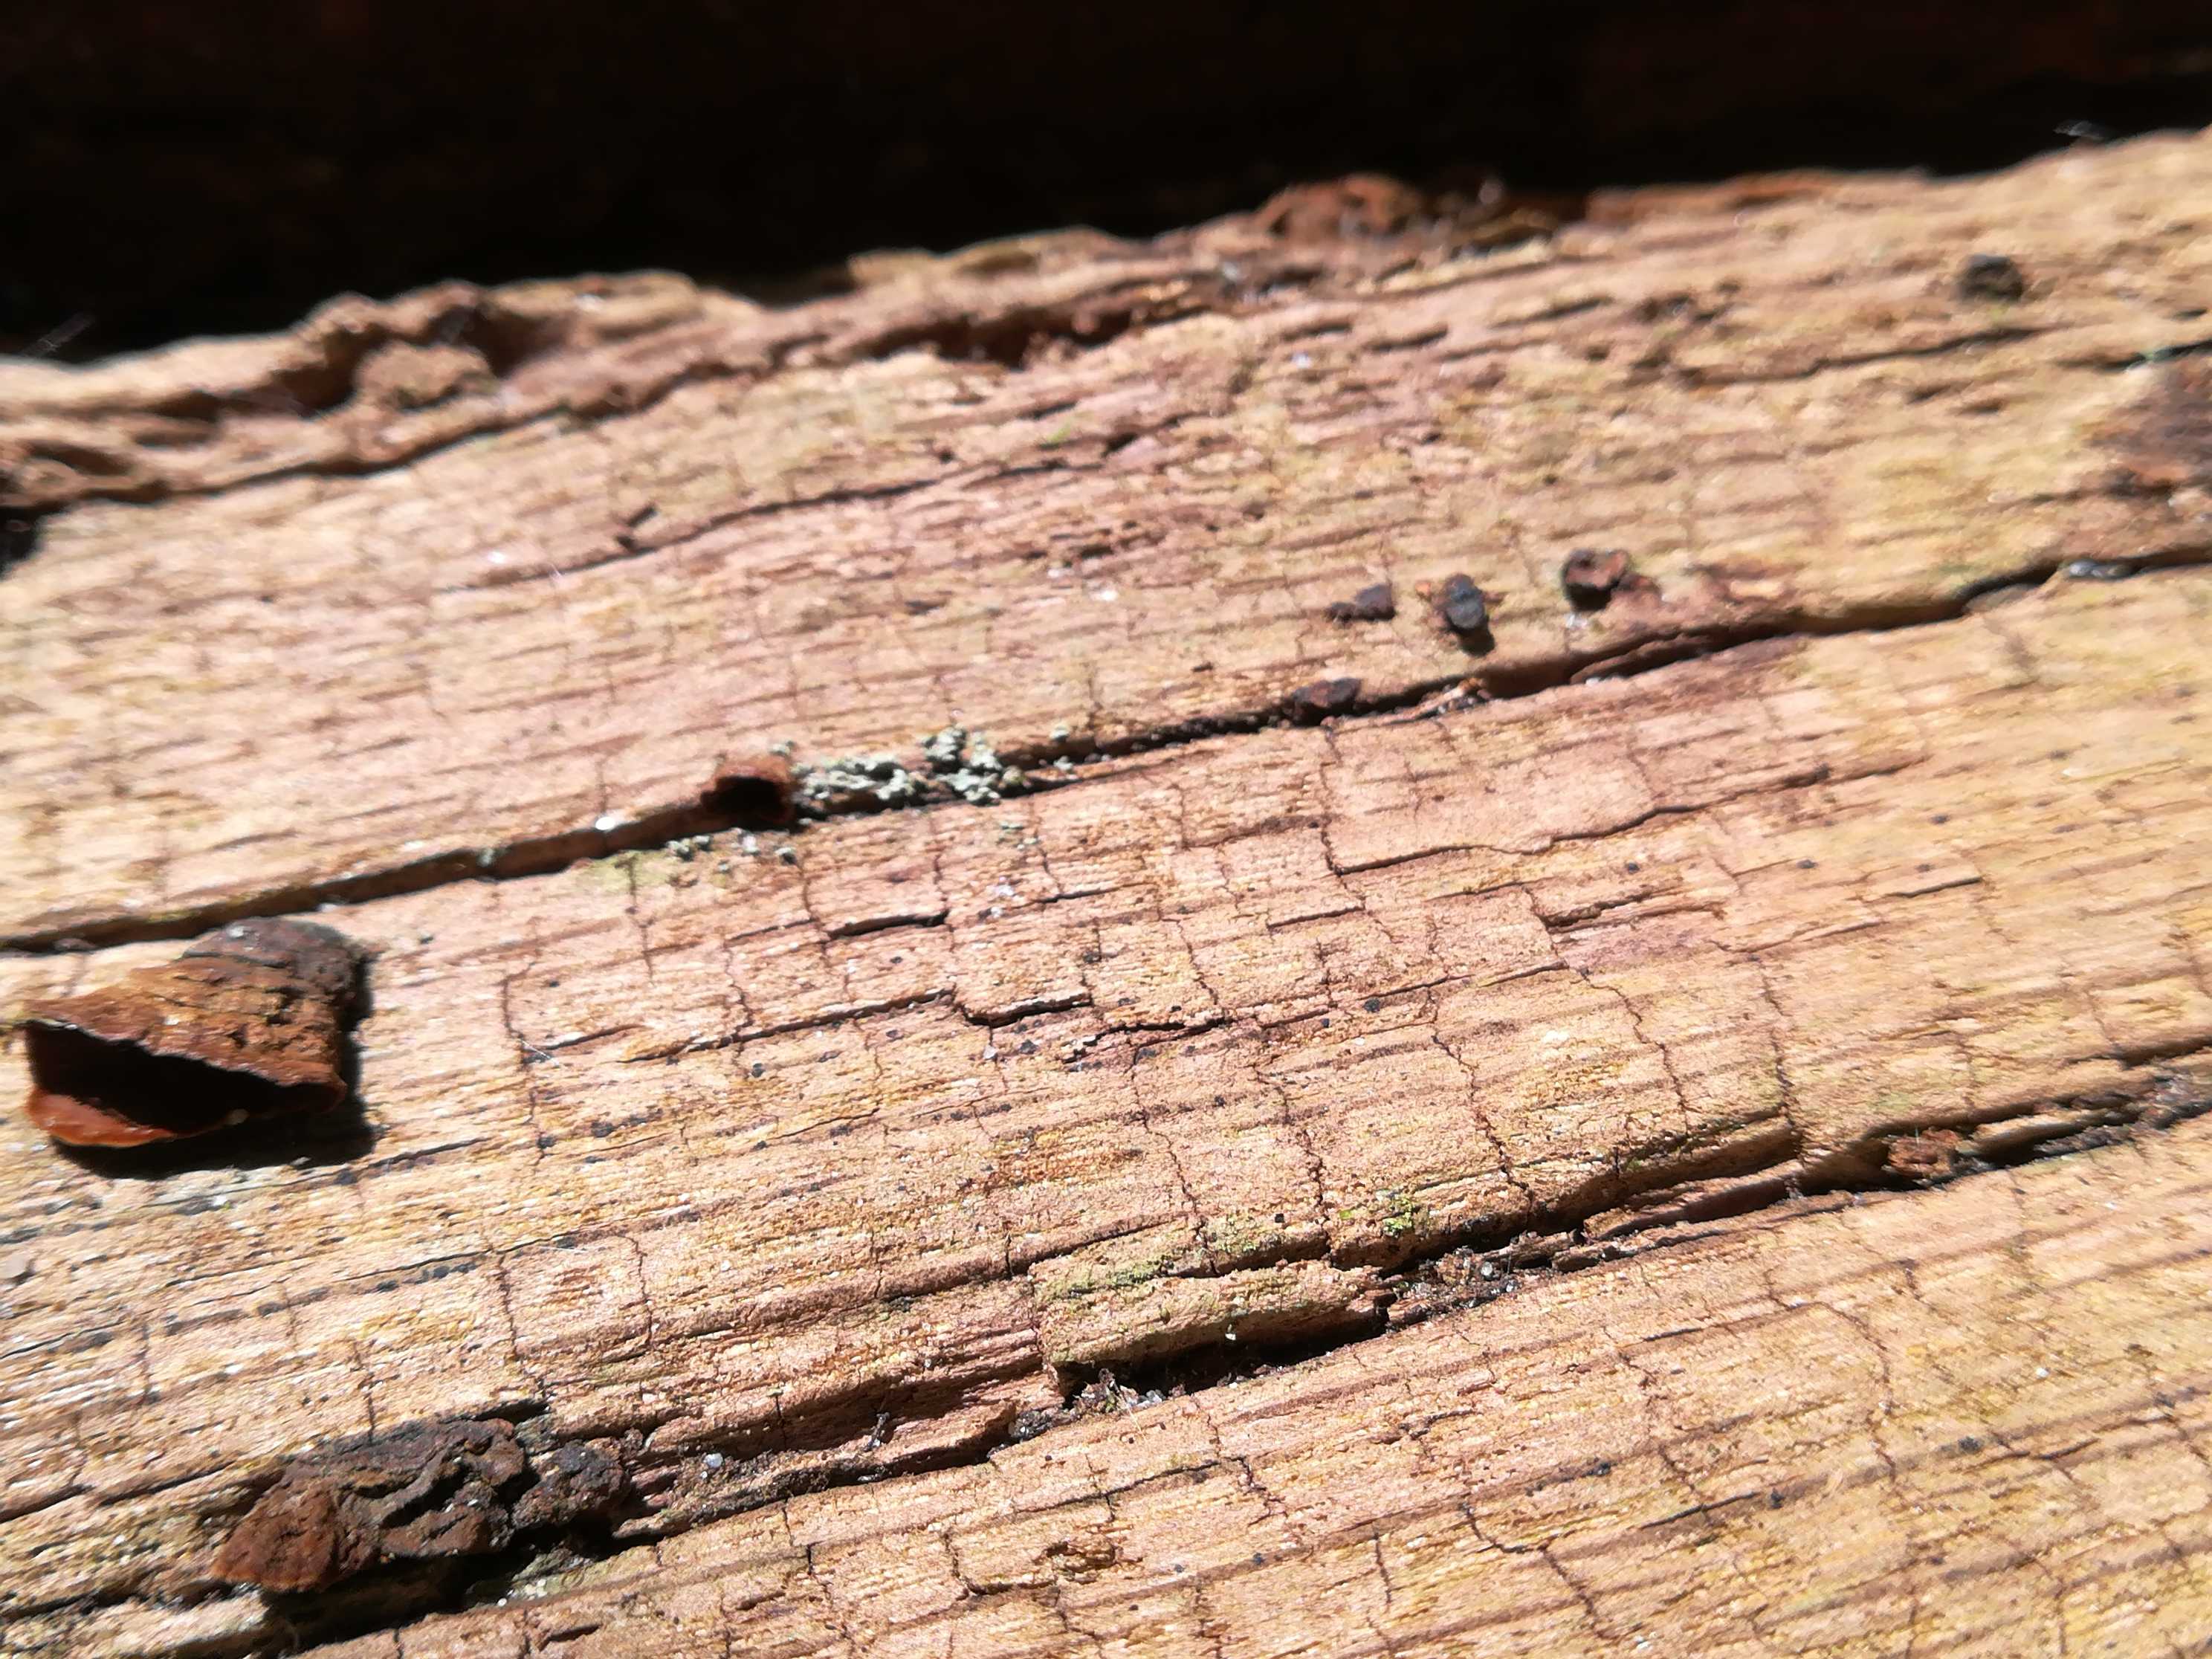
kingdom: Fungi
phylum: Basidiomycota
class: Agaricomycetes
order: Hymenochaetales
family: Hymenochaetaceae
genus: Hymenochaete
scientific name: Hymenochaete rubiginosa
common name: stiv ruslædersvamp
